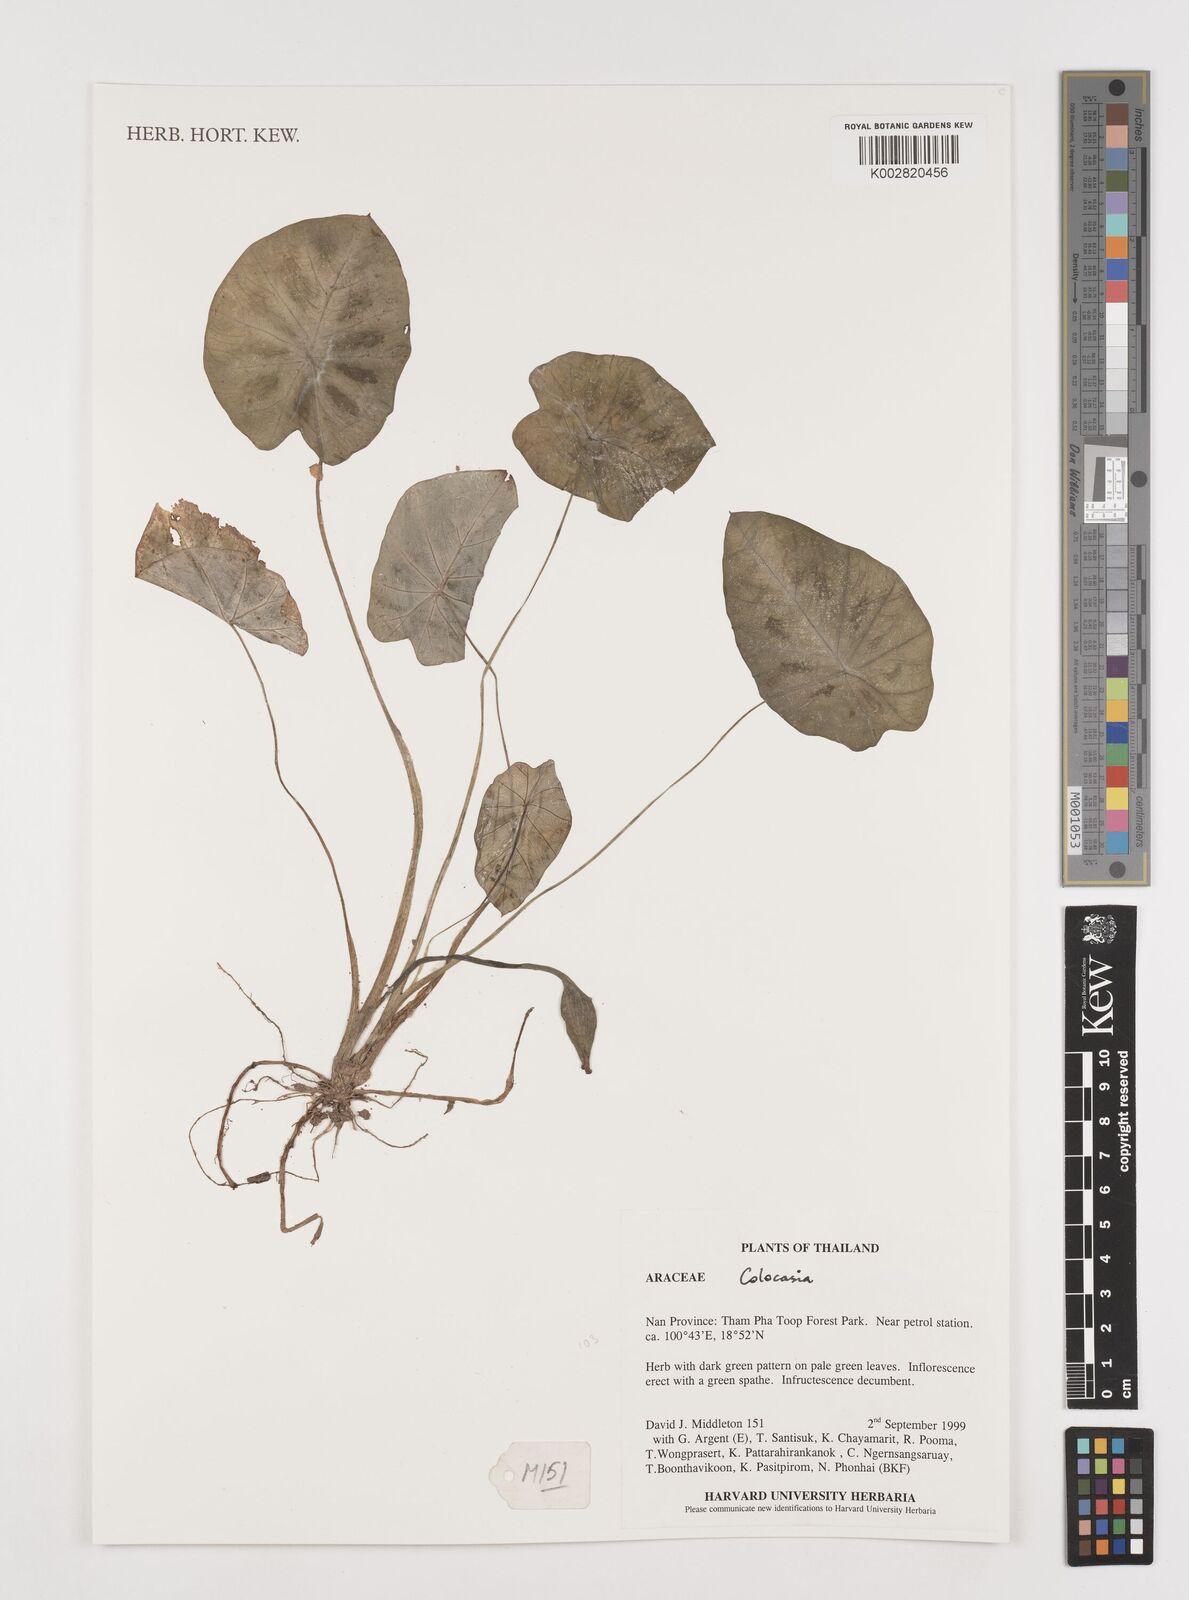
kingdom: Plantae
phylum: Tracheophyta
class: Liliopsida
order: Alismatales
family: Araceae
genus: Colocasia
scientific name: Colocasia
